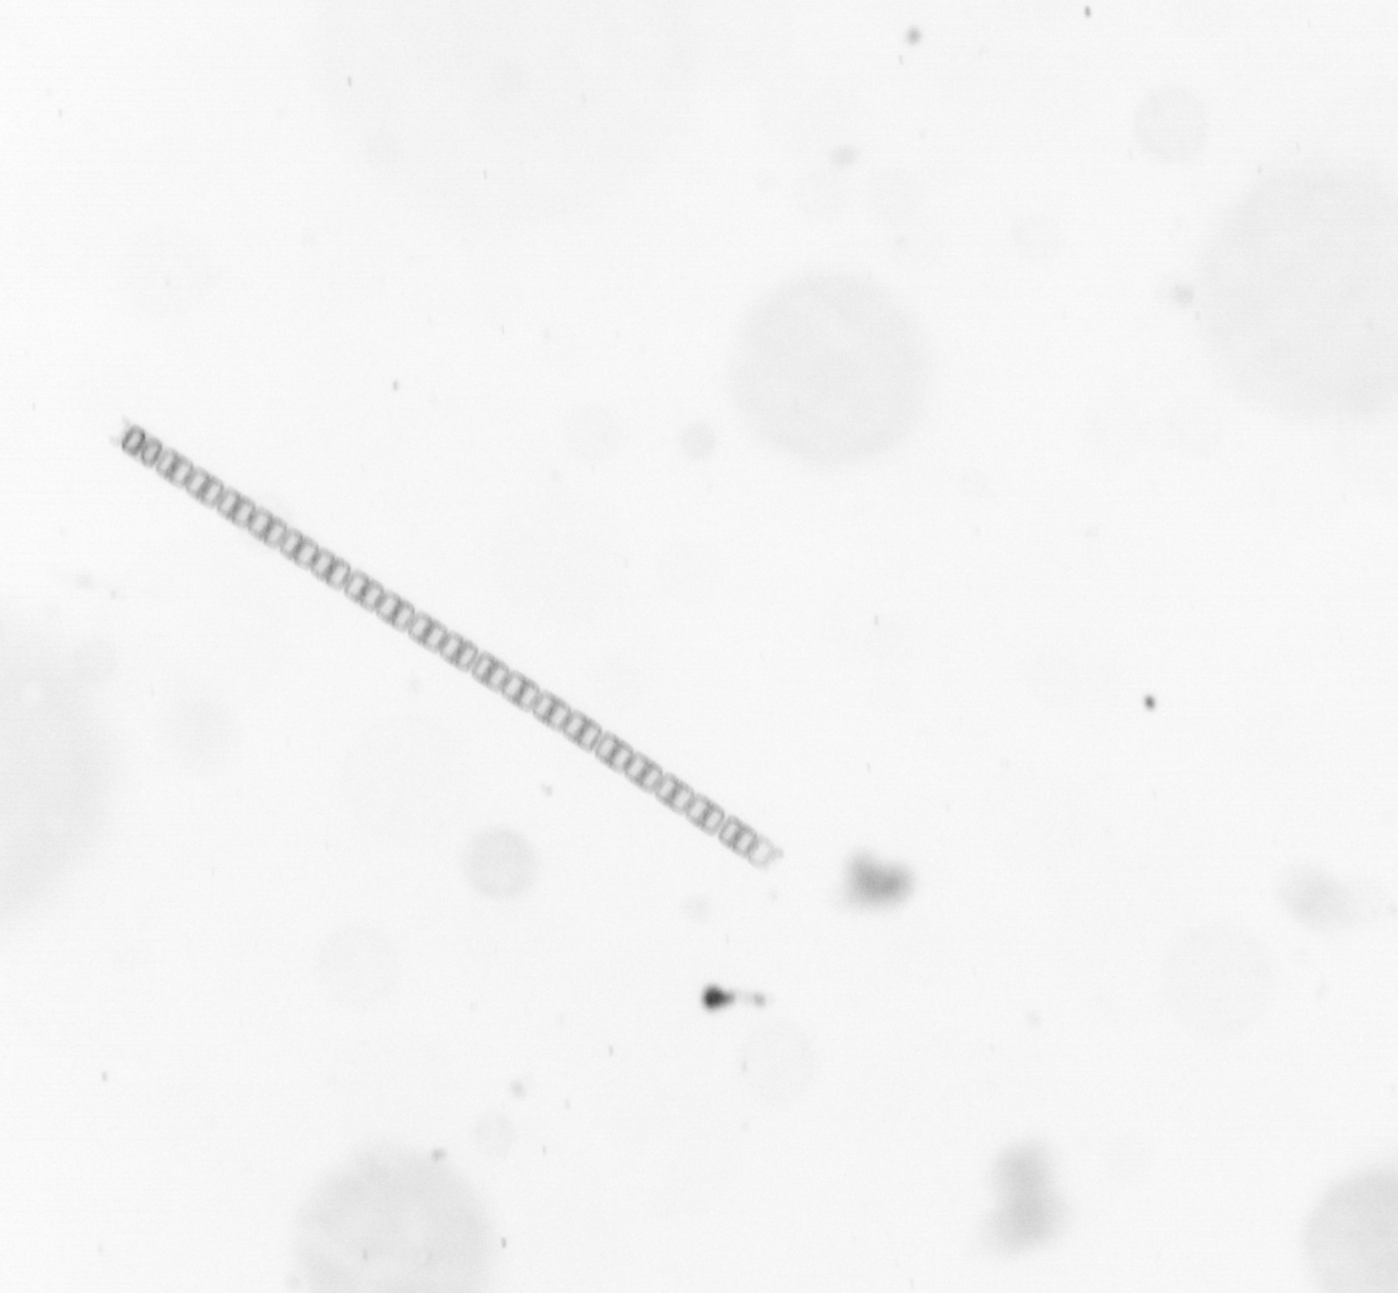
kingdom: Chromista
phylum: Ochrophyta
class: Bacillariophyceae
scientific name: Bacillariophyceae
